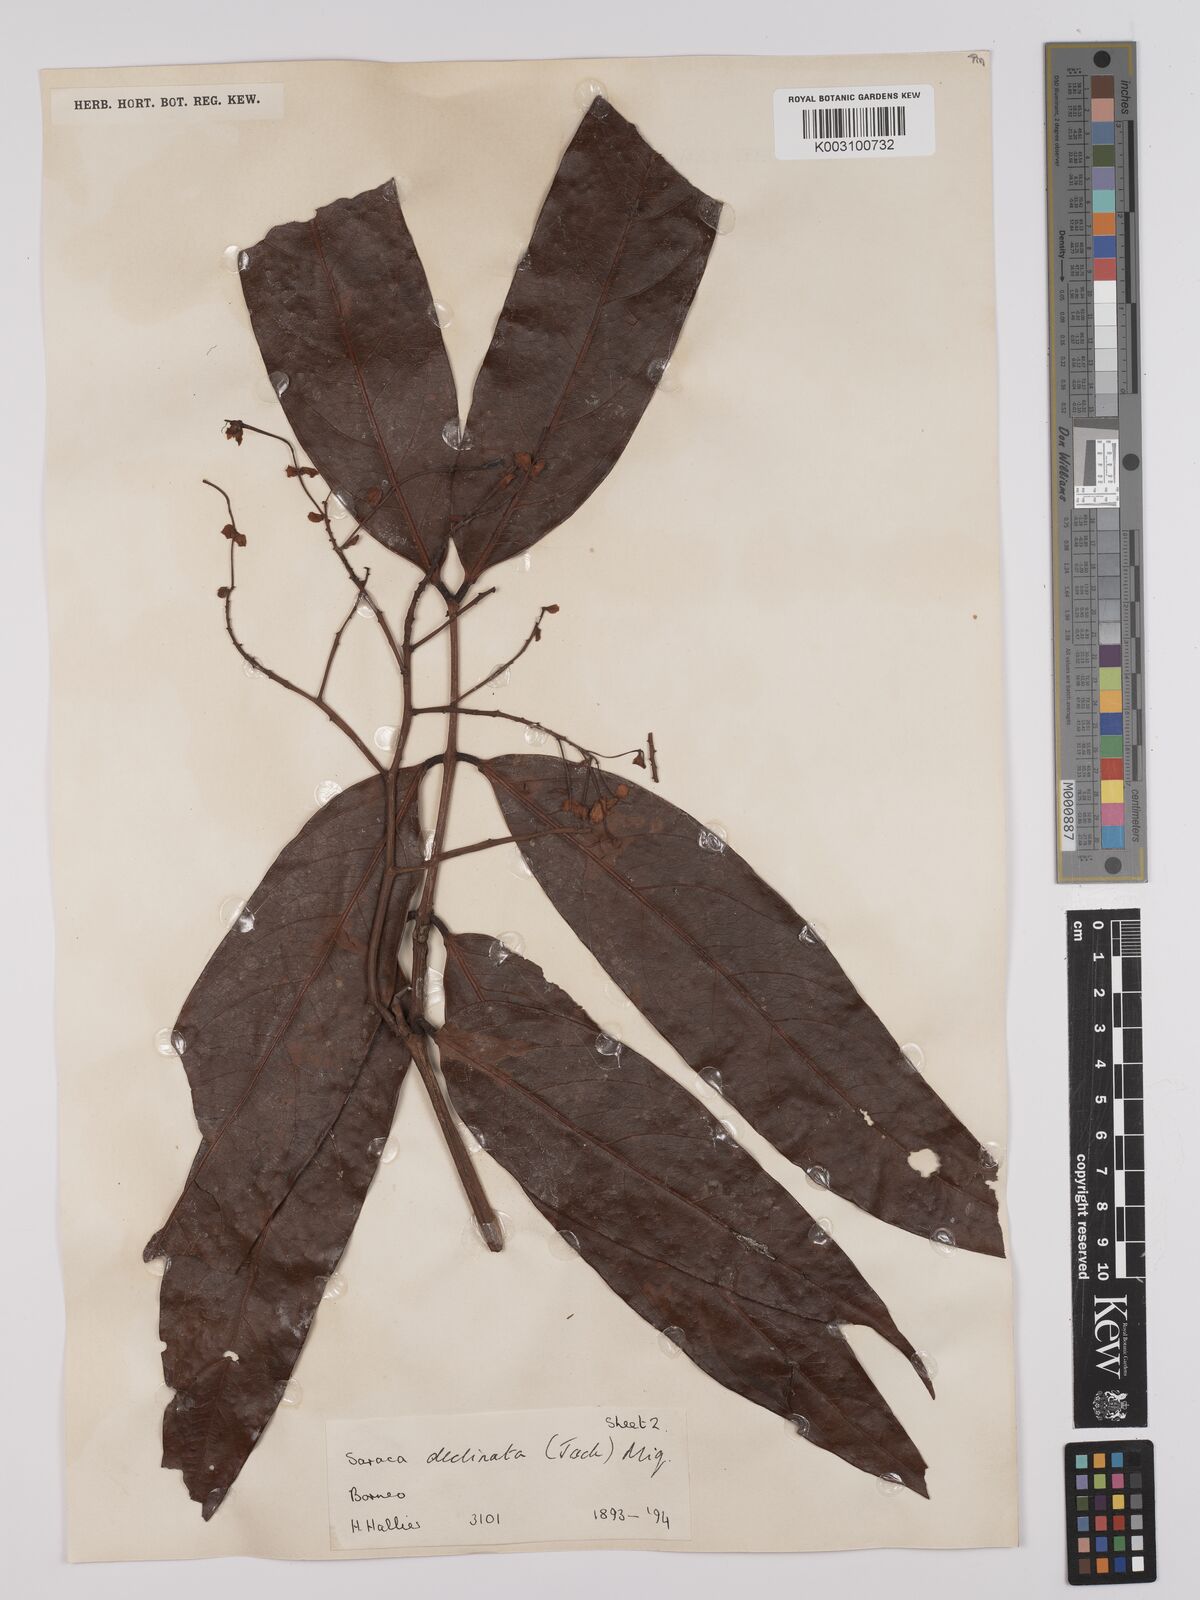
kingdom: Plantae
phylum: Tracheophyta
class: Magnoliopsida
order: Fabales
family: Fabaceae
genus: Saraca
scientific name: Saraca declinata
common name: Red saraca
